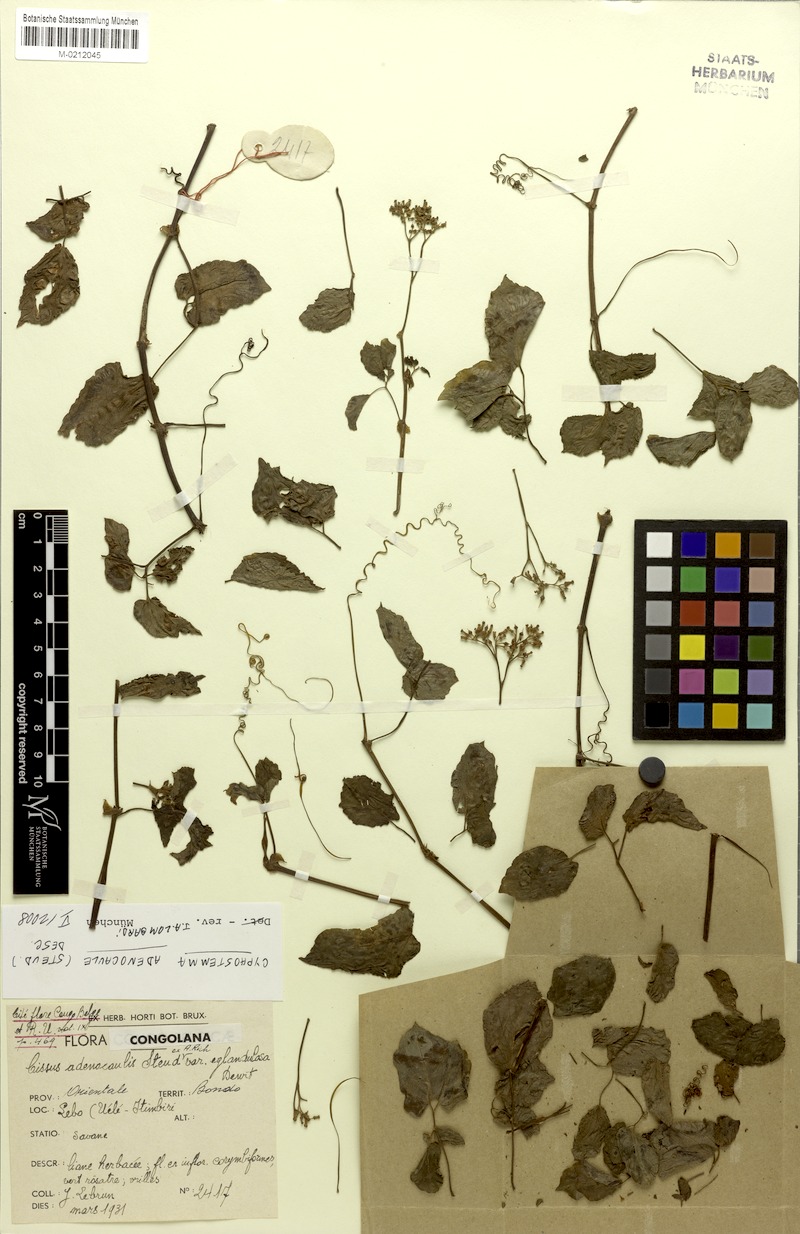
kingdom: Plantae
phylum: Tracheophyta
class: Magnoliopsida
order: Vitales
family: Vitaceae
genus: Cyphostemma
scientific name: Cyphostemma adenocaule
